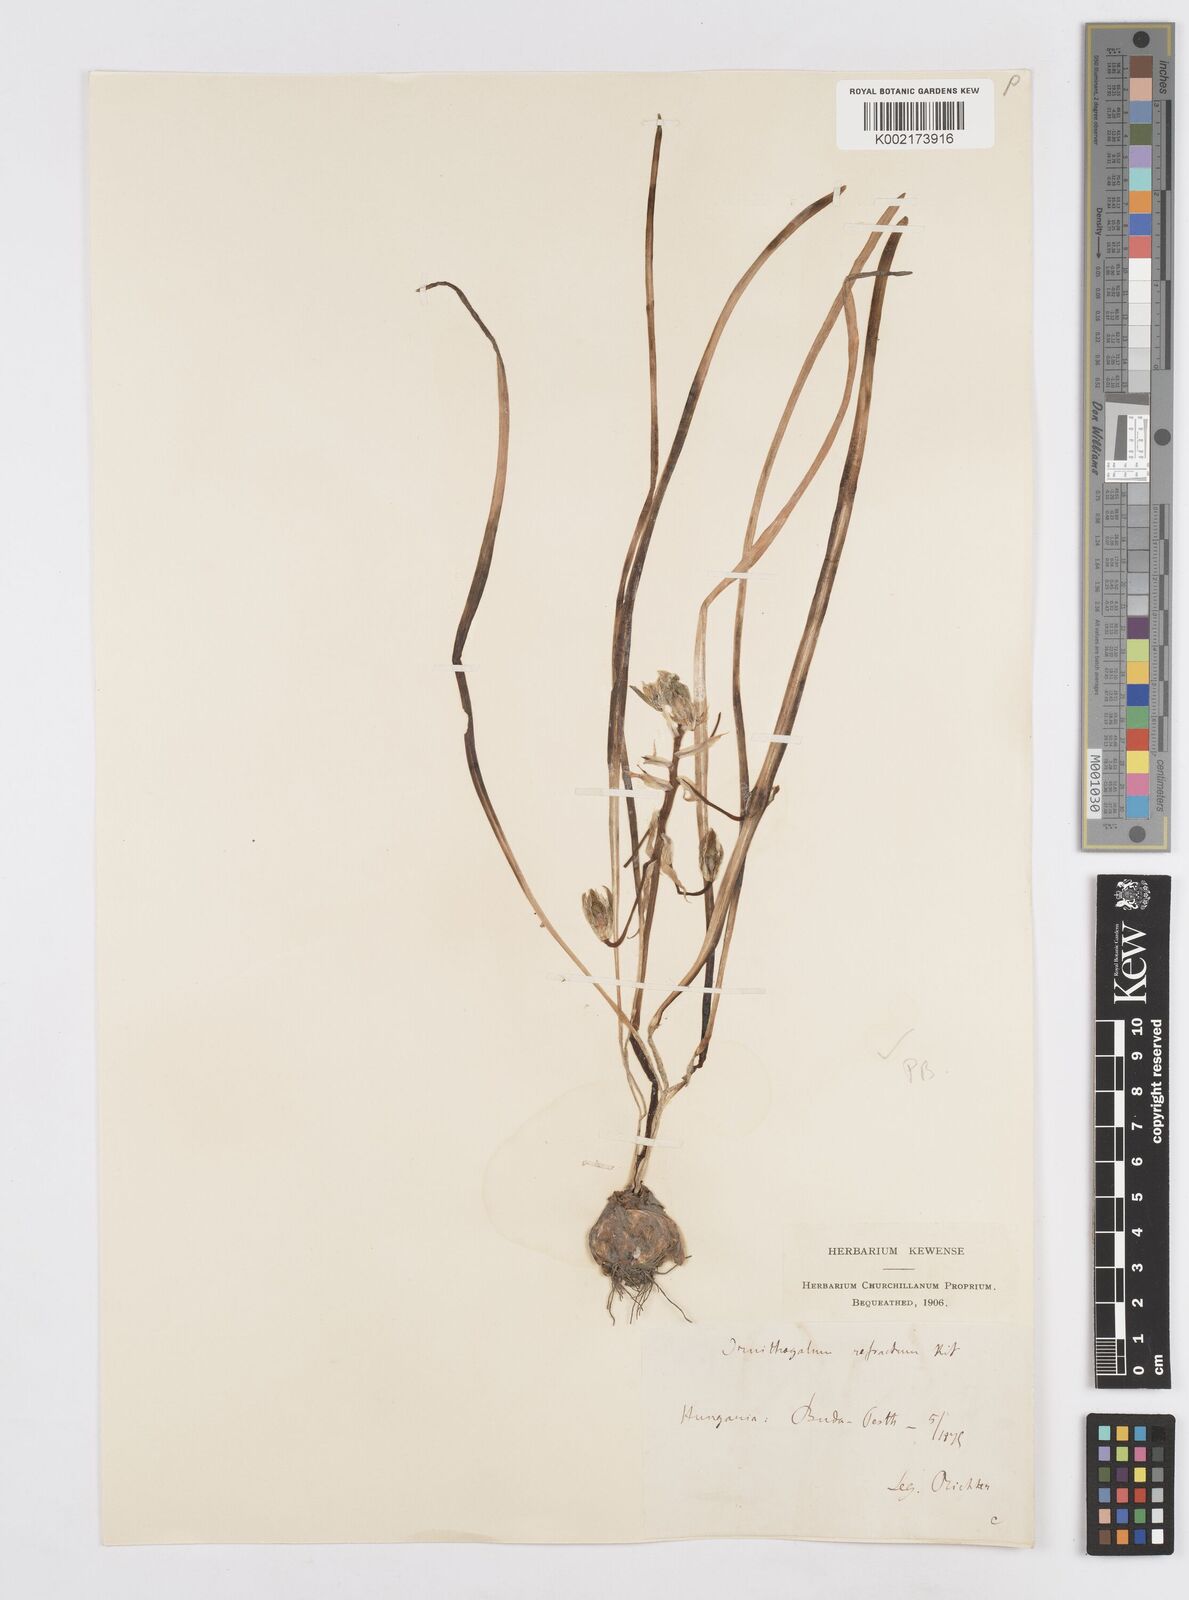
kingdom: Plantae
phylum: Tracheophyta
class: Liliopsida
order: Asparagales
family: Asparagaceae
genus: Ornithogalum
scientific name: Ornithogalum refractum
